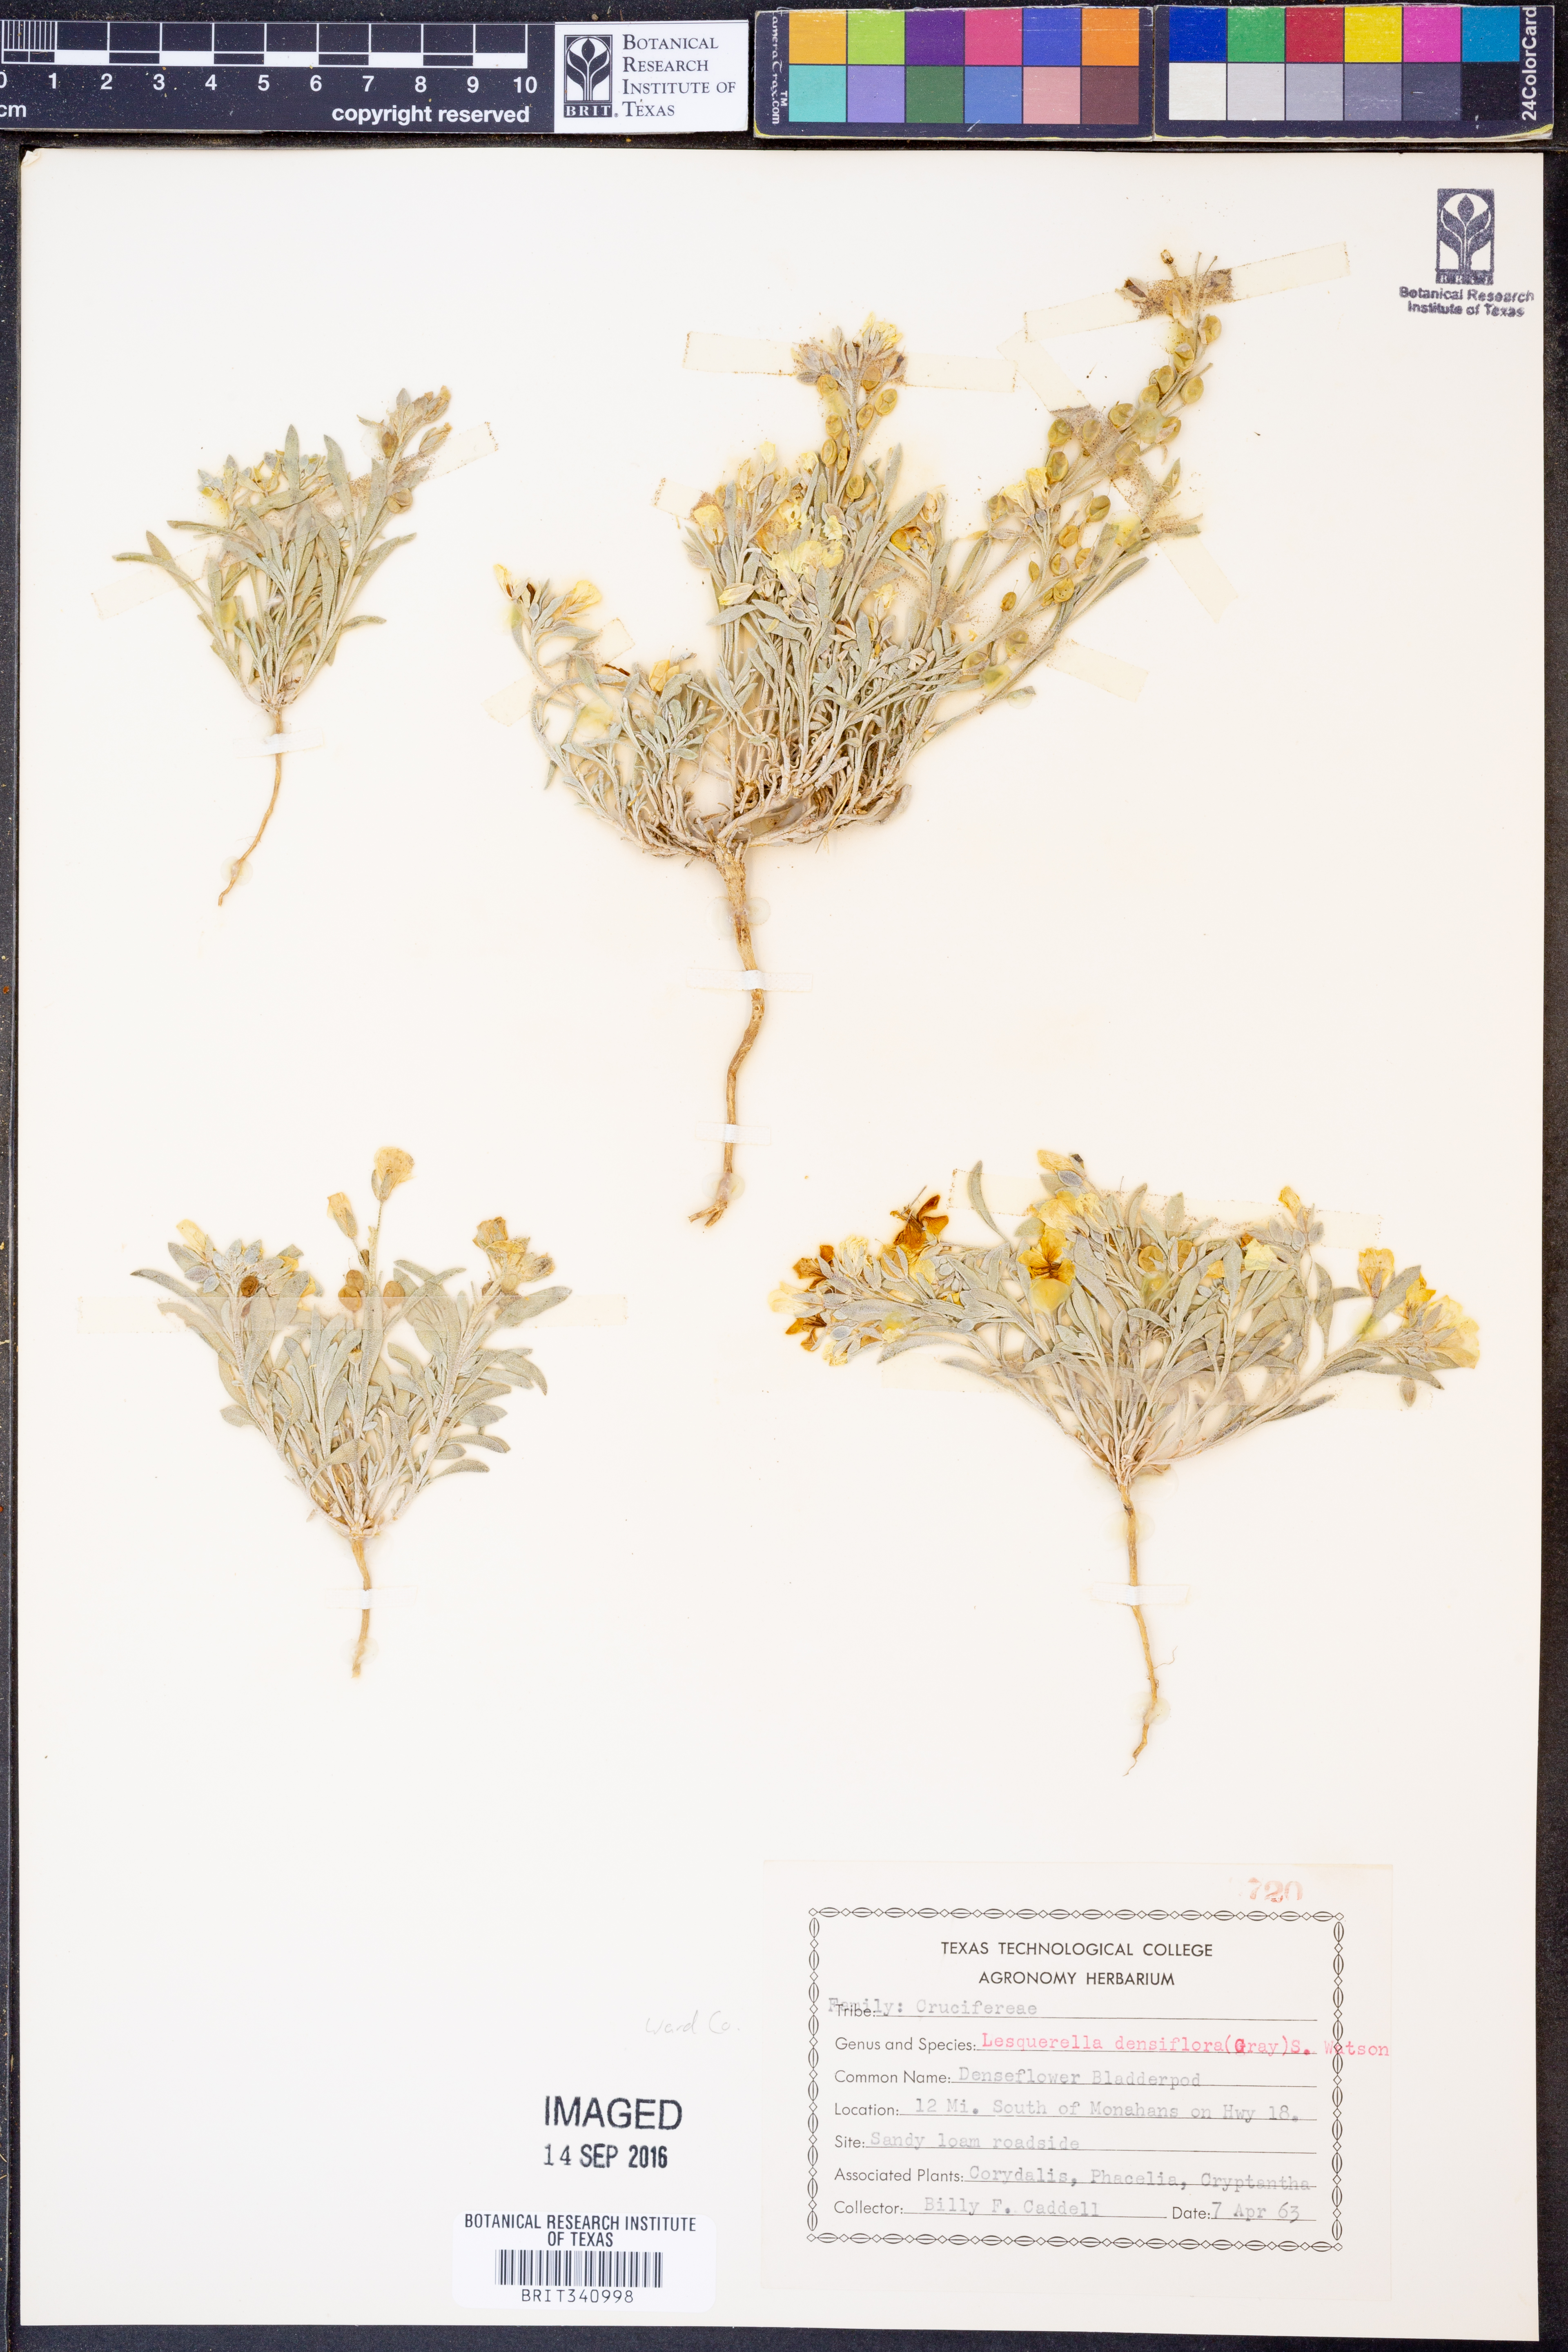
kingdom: Plantae
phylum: Tracheophyta
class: Magnoliopsida
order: Brassicales
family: Brassicaceae
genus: Physaria
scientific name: Physaria densiflora
